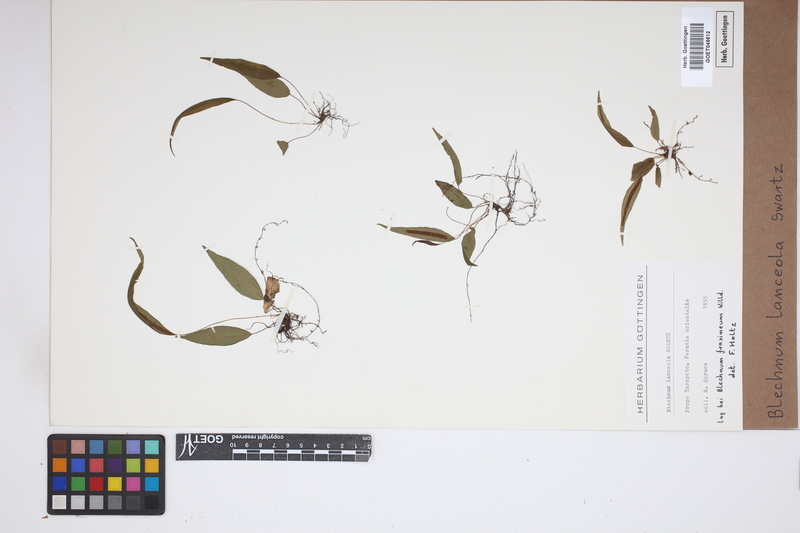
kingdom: Plantae
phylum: Tracheophyta
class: Polypodiopsida
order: Polypodiales
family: Blechnaceae
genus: Blechnum
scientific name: Blechnum lanceola
